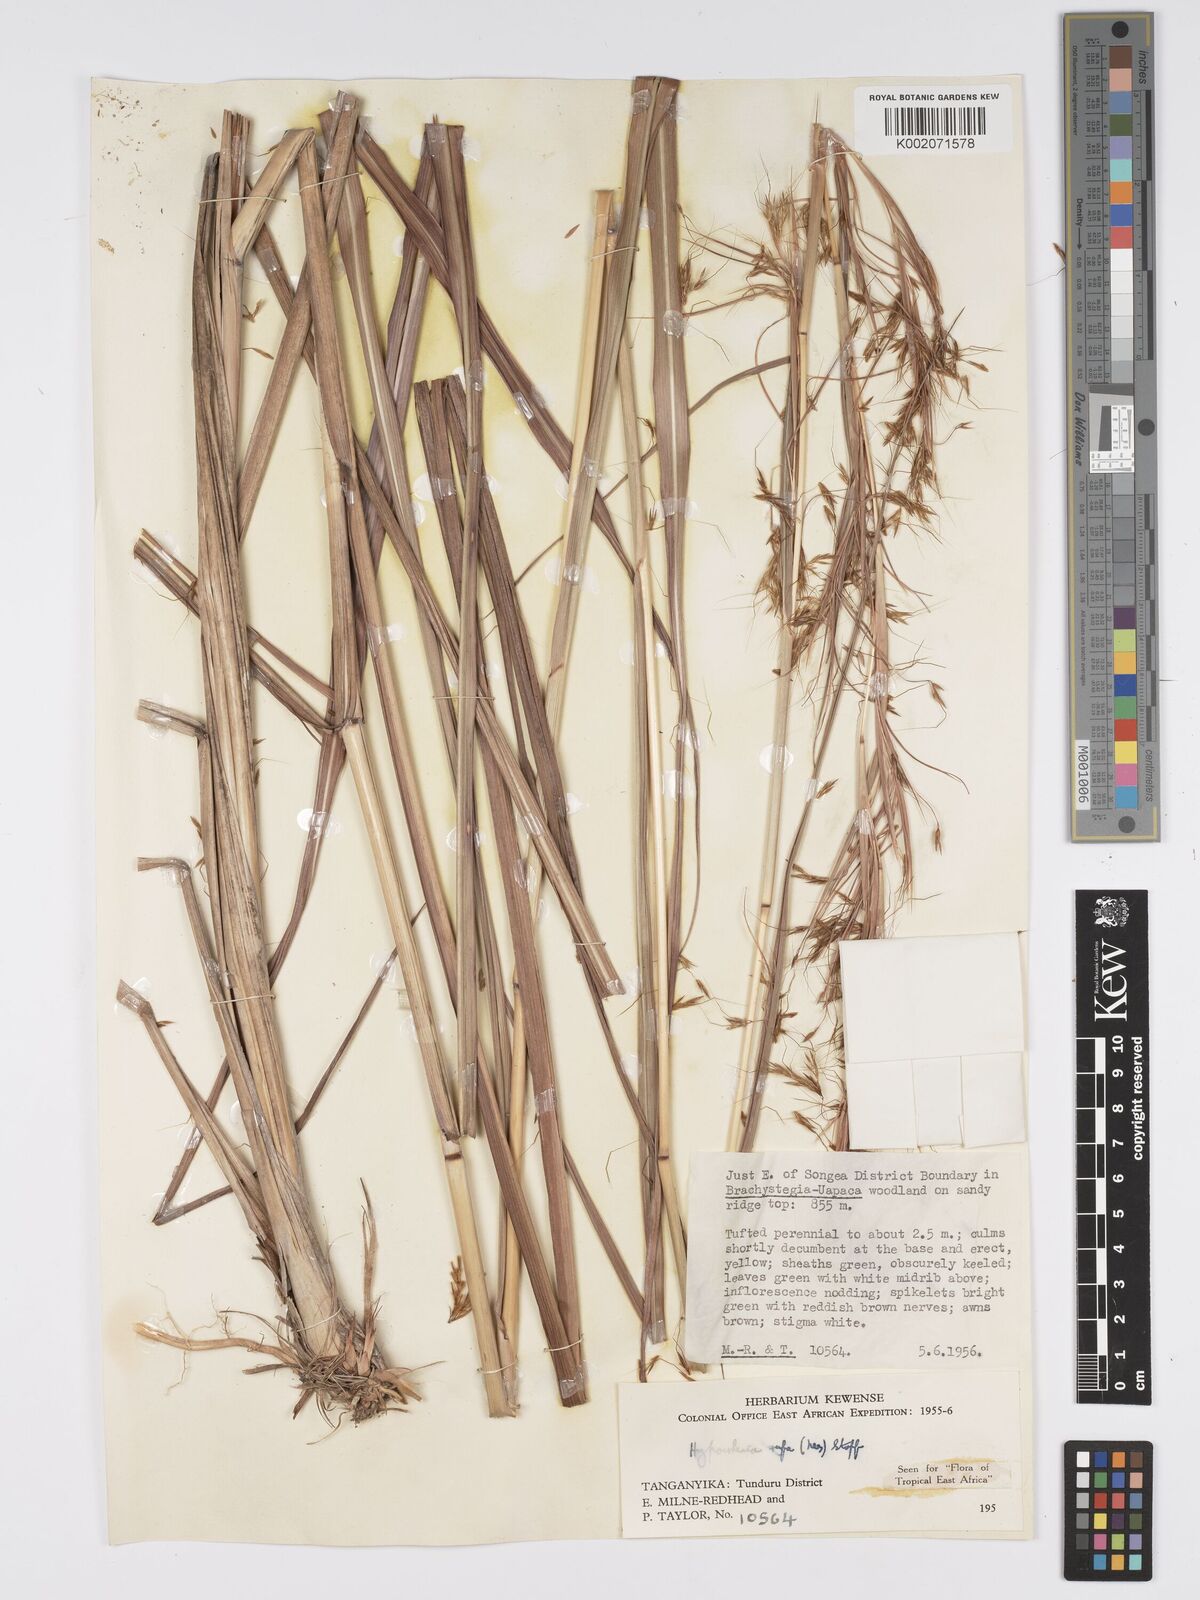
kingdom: Plantae
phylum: Tracheophyta
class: Liliopsida
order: Poales
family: Poaceae
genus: Hyparrhenia
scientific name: Hyparrhenia rufa
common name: Jaraguagrass
